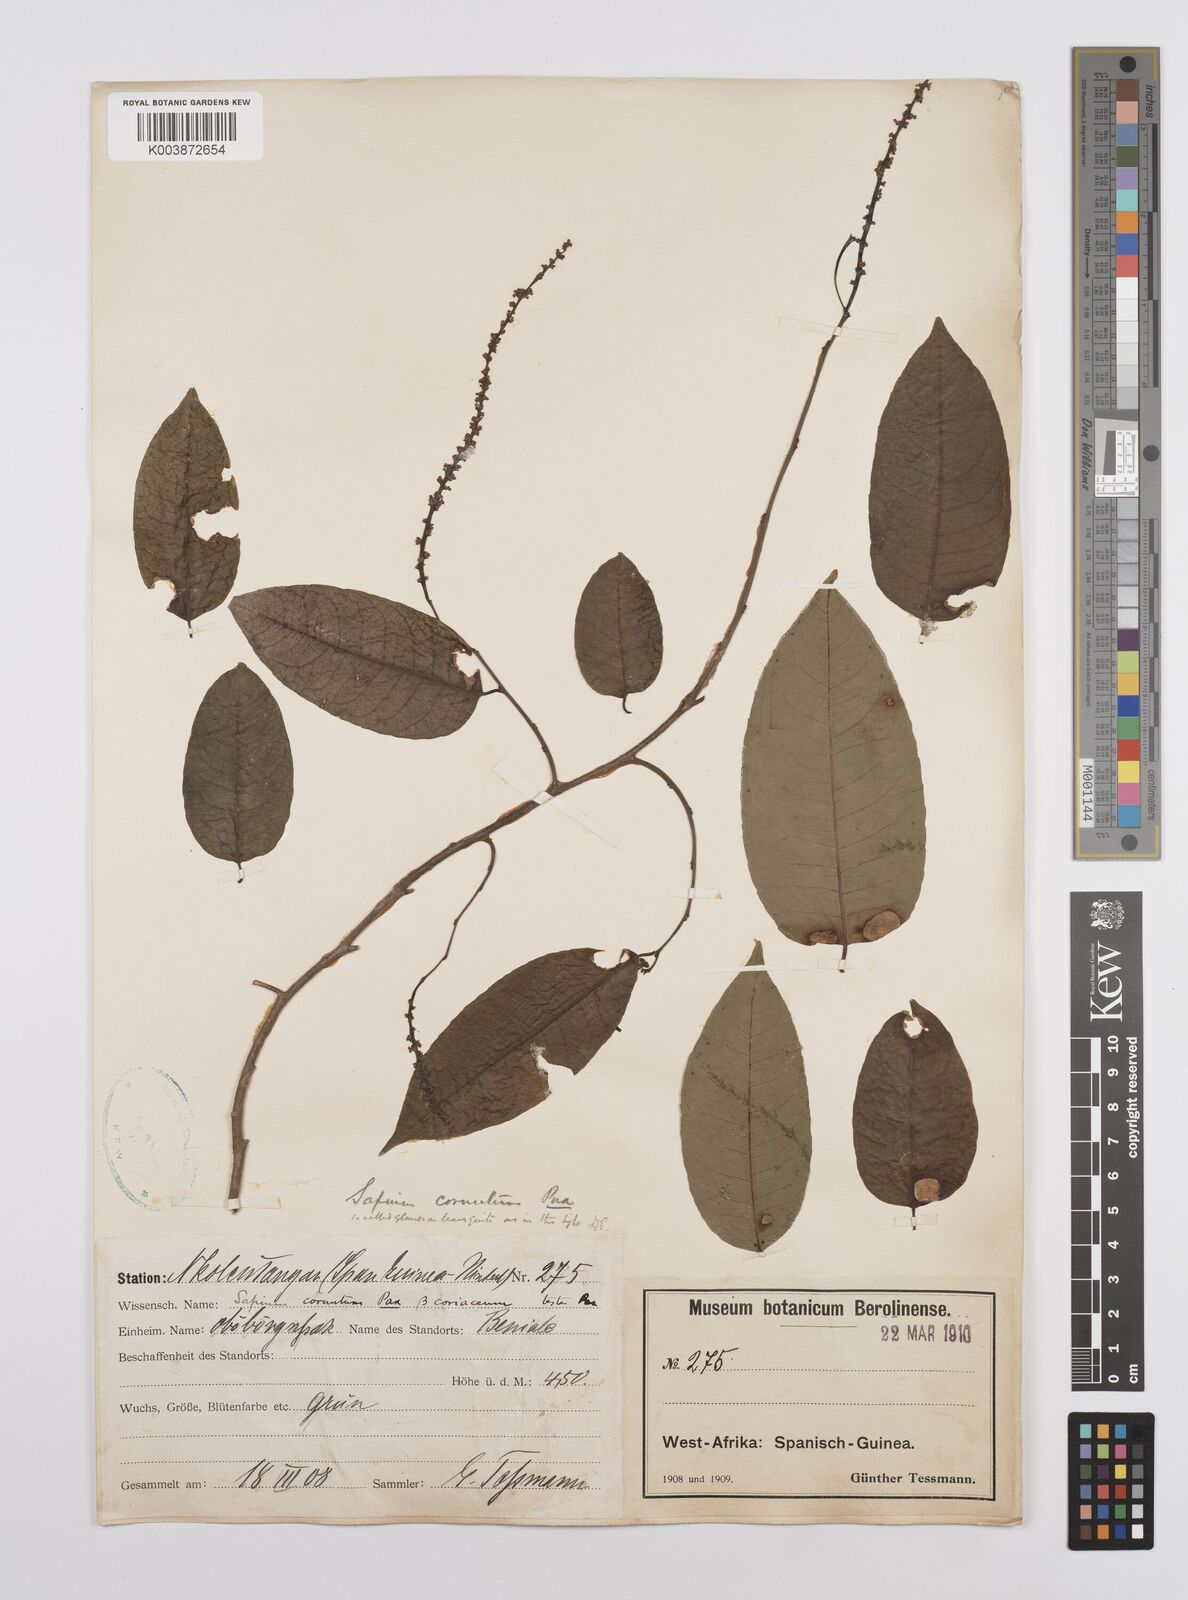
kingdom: Plantae
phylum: Tracheophyta
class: Magnoliopsida
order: Malpighiales
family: Euphorbiaceae
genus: Sclerocroton
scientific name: Sclerocroton cornutus
